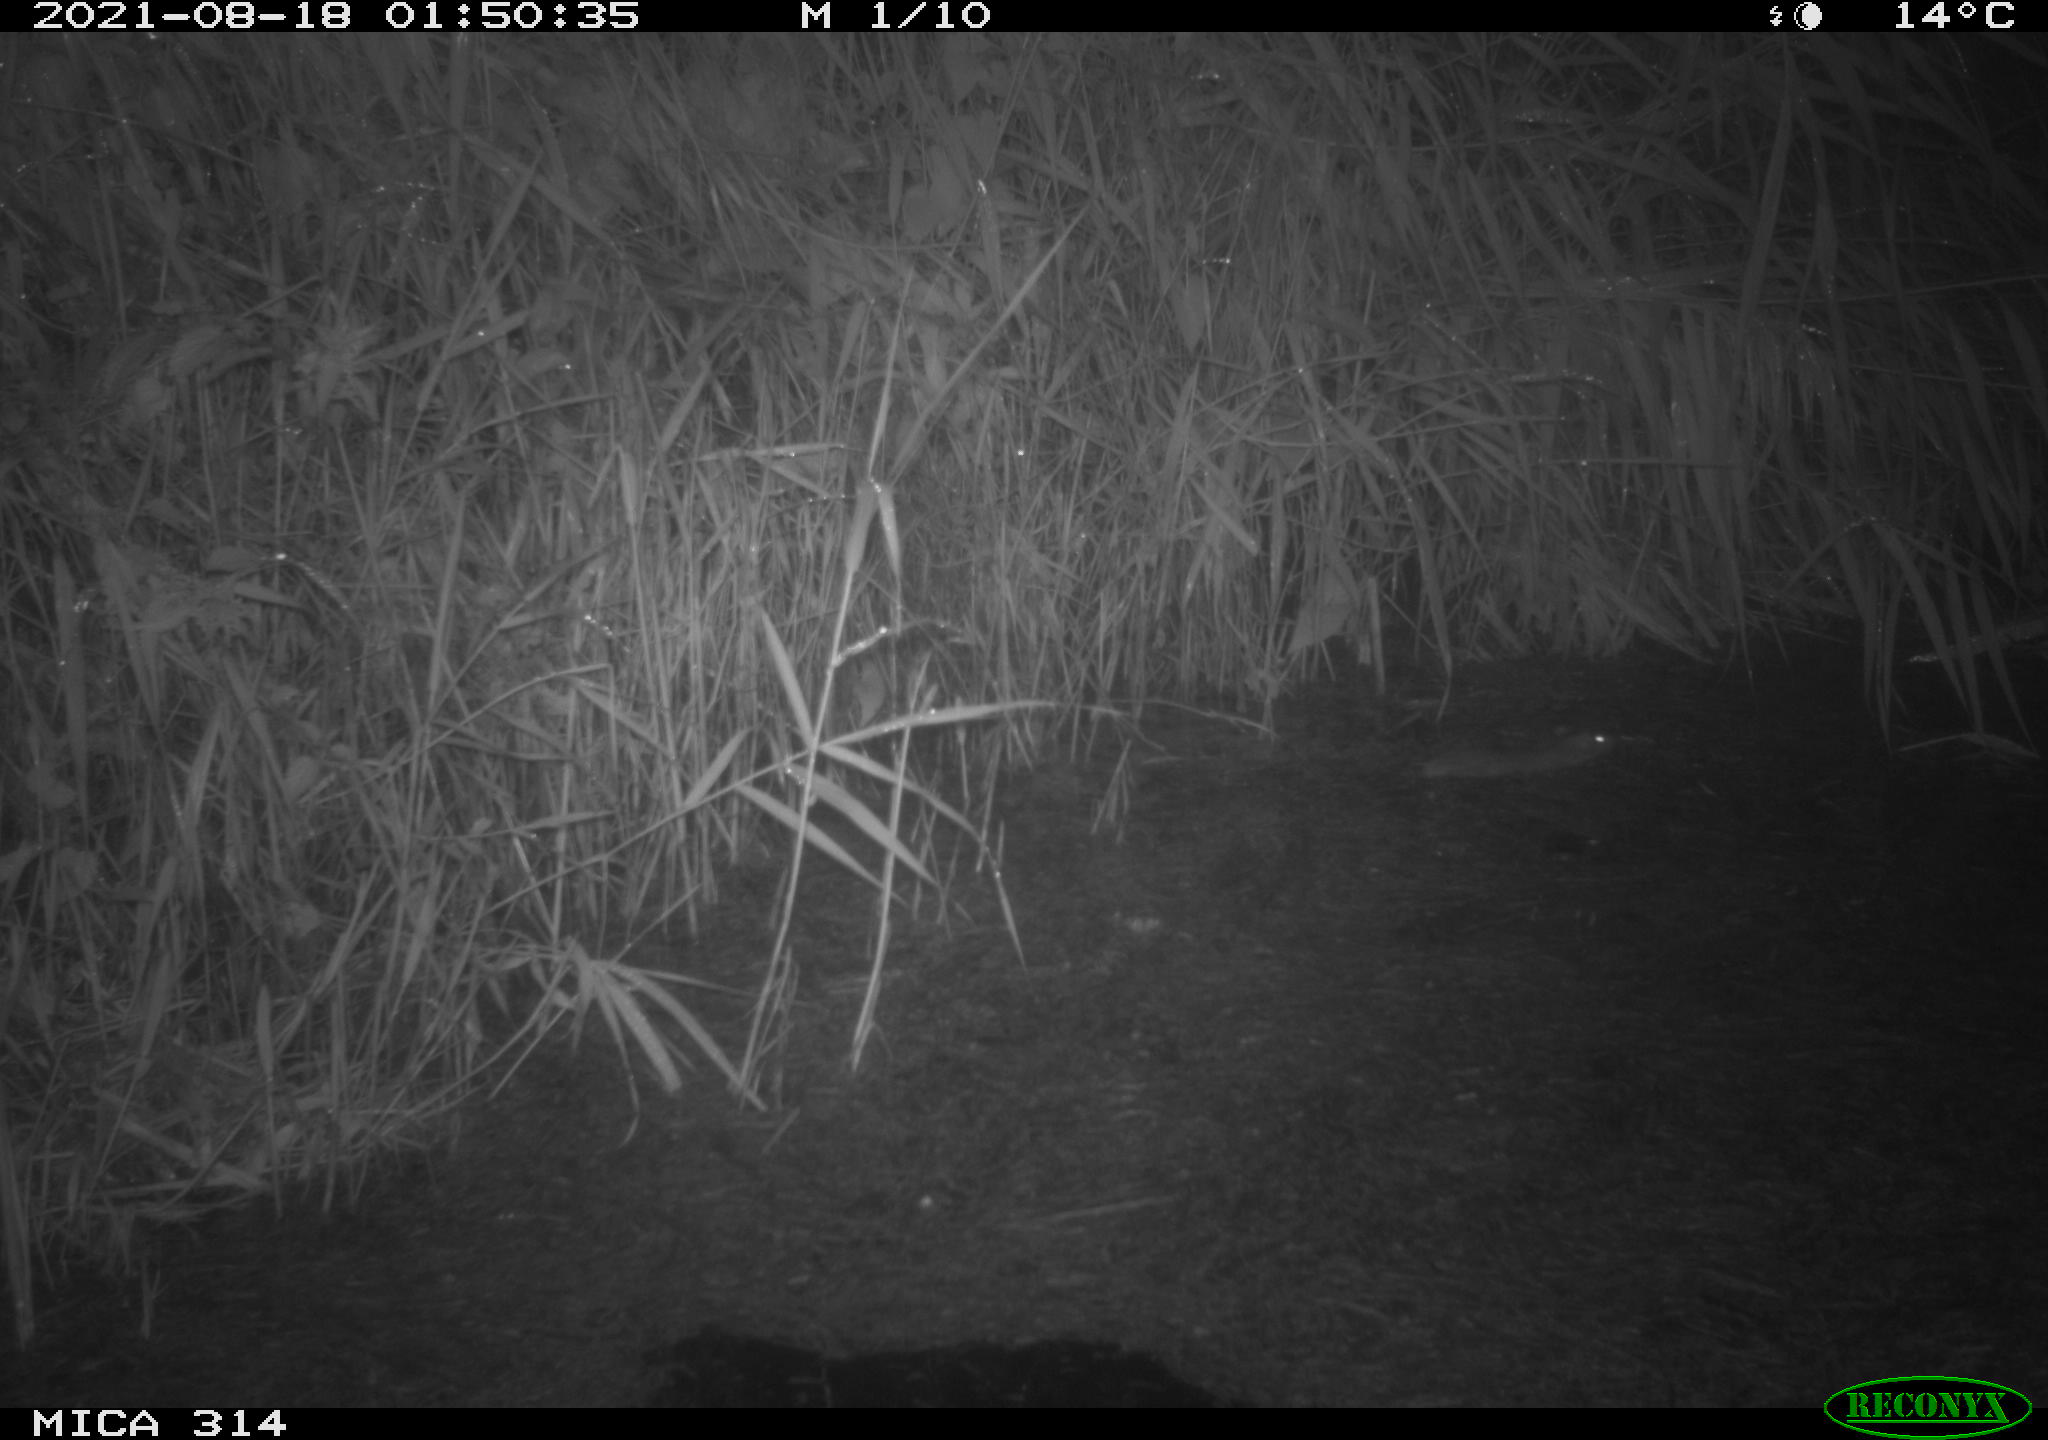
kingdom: Animalia
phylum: Chordata
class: Mammalia
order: Rodentia
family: Muridae
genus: Rattus
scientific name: Rattus norvegicus
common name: Brown rat
